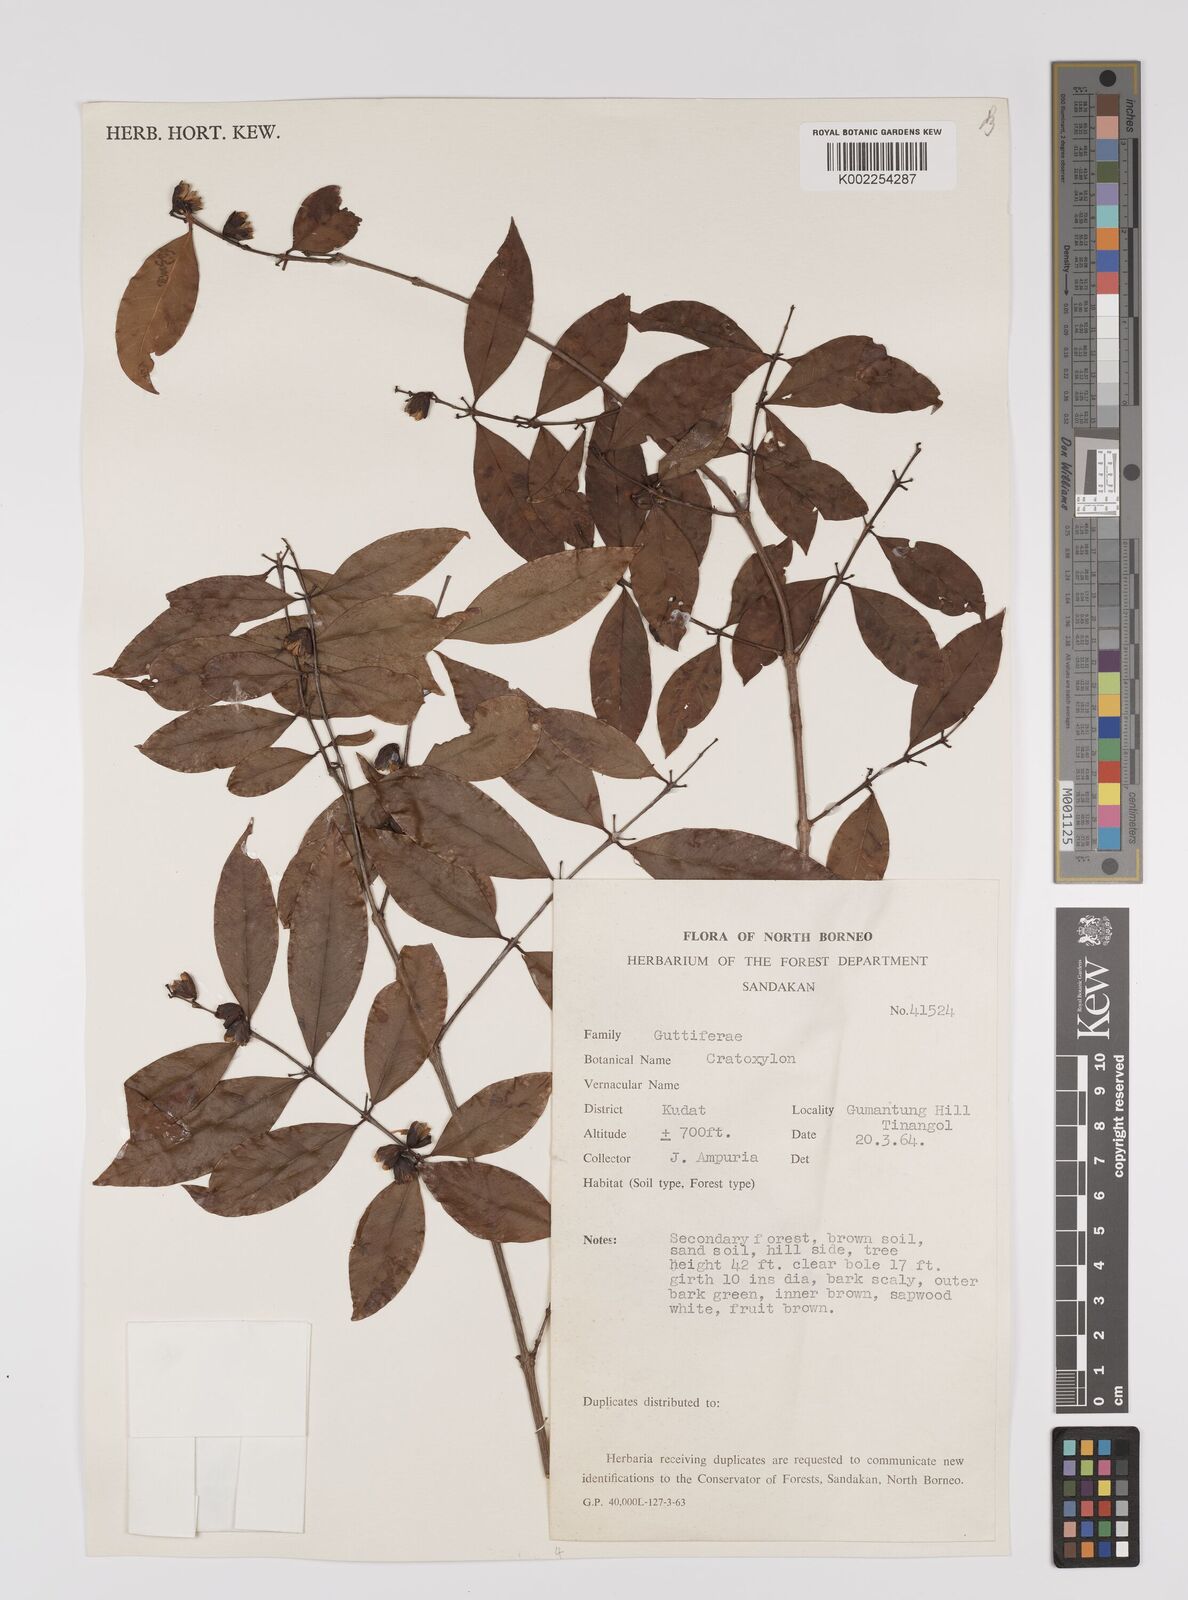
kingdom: Plantae
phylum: Tracheophyta
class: Magnoliopsida
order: Malpighiales
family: Hypericaceae
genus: Cratoxylum
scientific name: Cratoxylum
